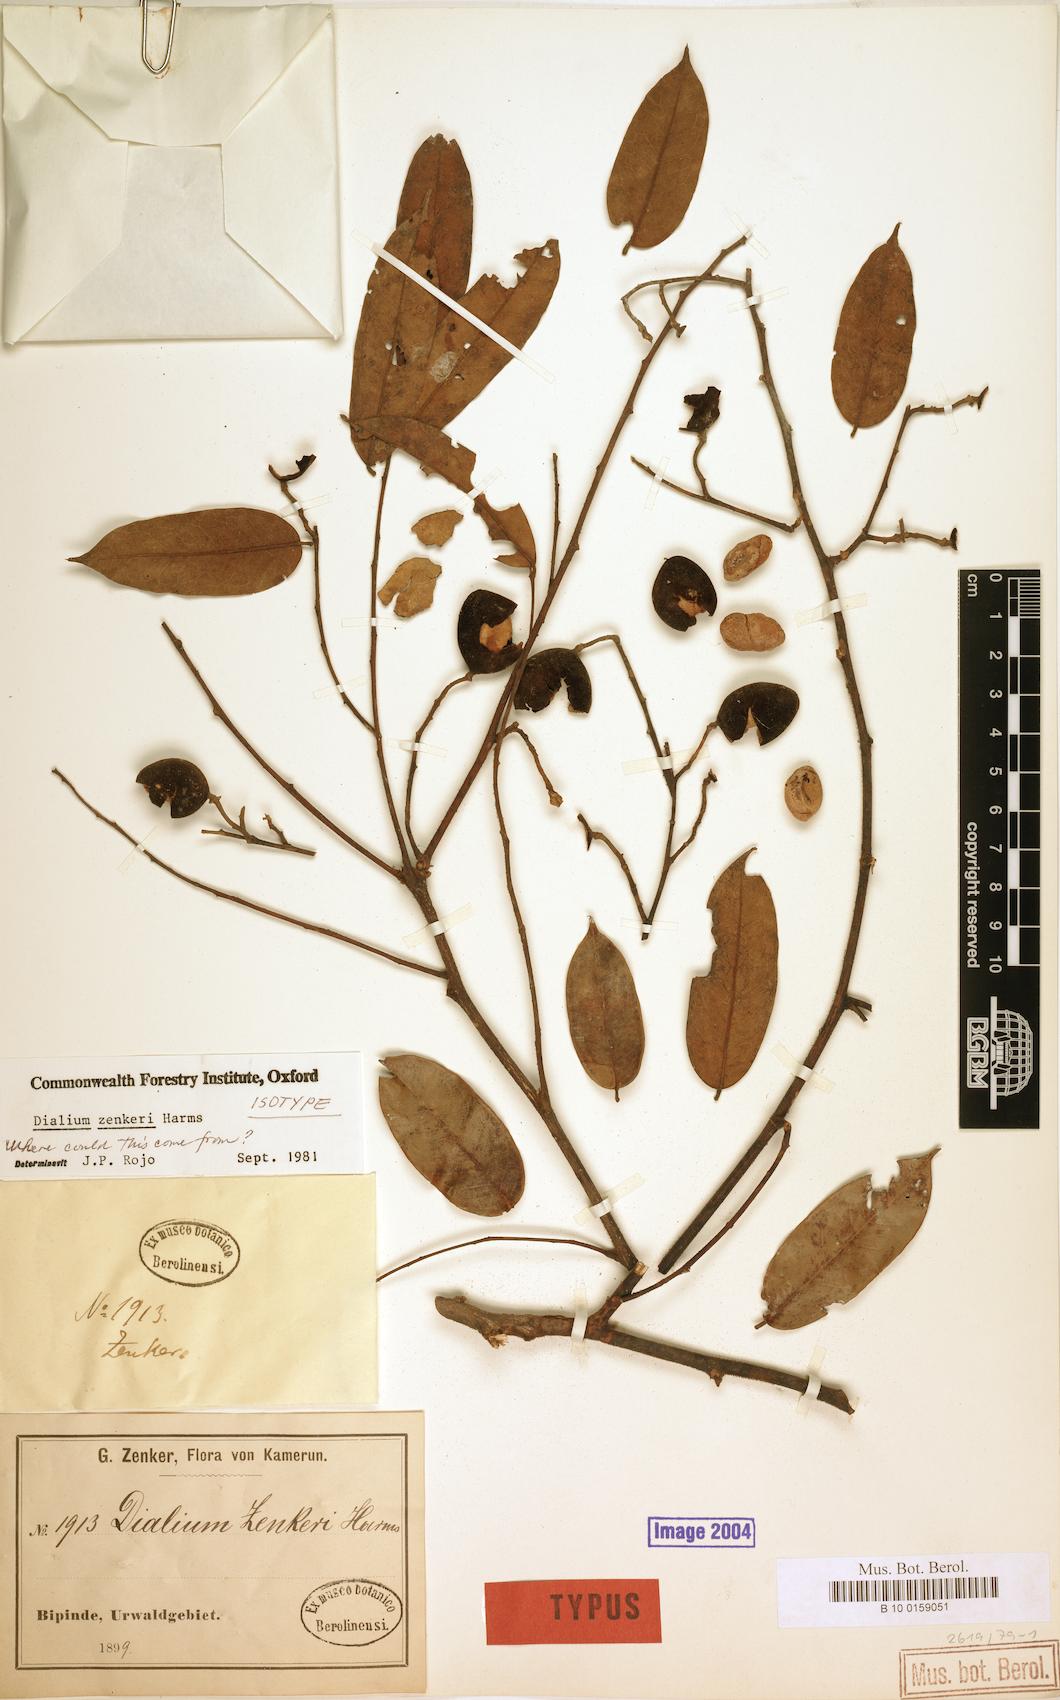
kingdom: Plantae
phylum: Tracheophyta
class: Magnoliopsida
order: Fabales
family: Fabaceae
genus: Dialium
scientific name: Dialium zenkeri
